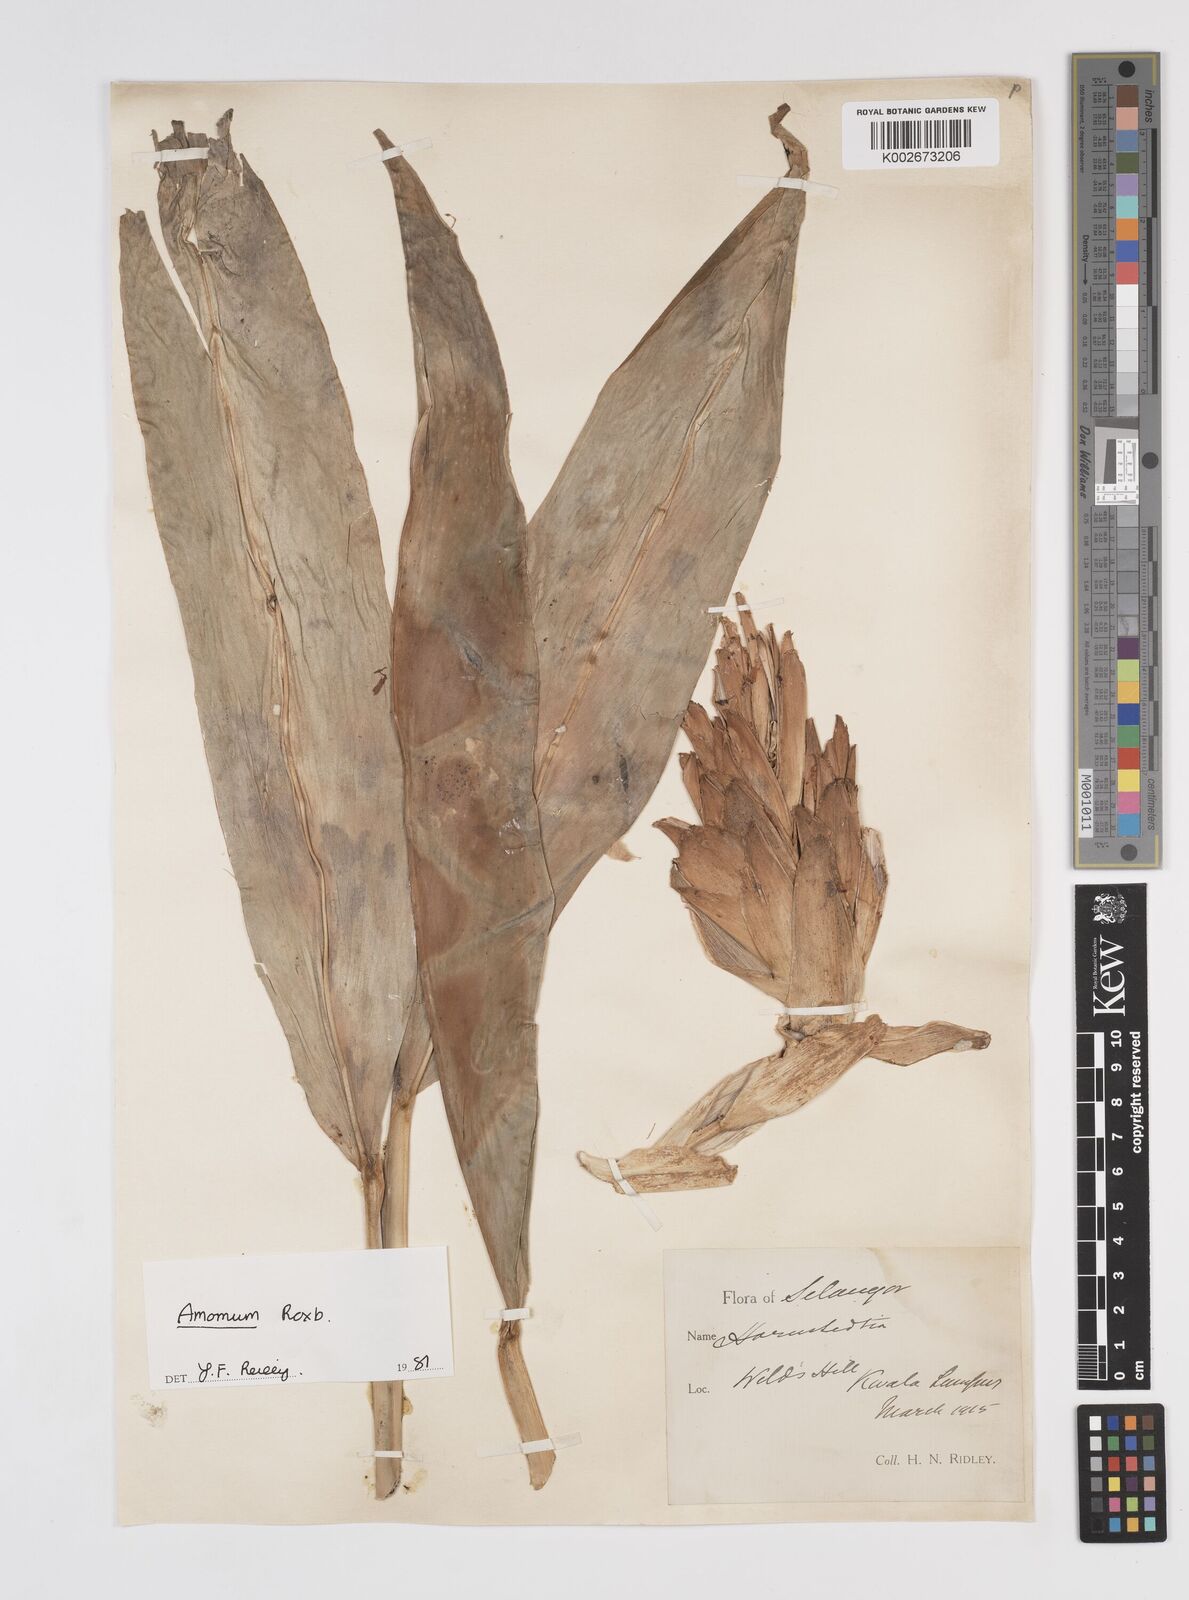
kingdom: Plantae
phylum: Tracheophyta
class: Liliopsida
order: Zingiberales
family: Zingiberaceae
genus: Amomum
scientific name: Amomum
